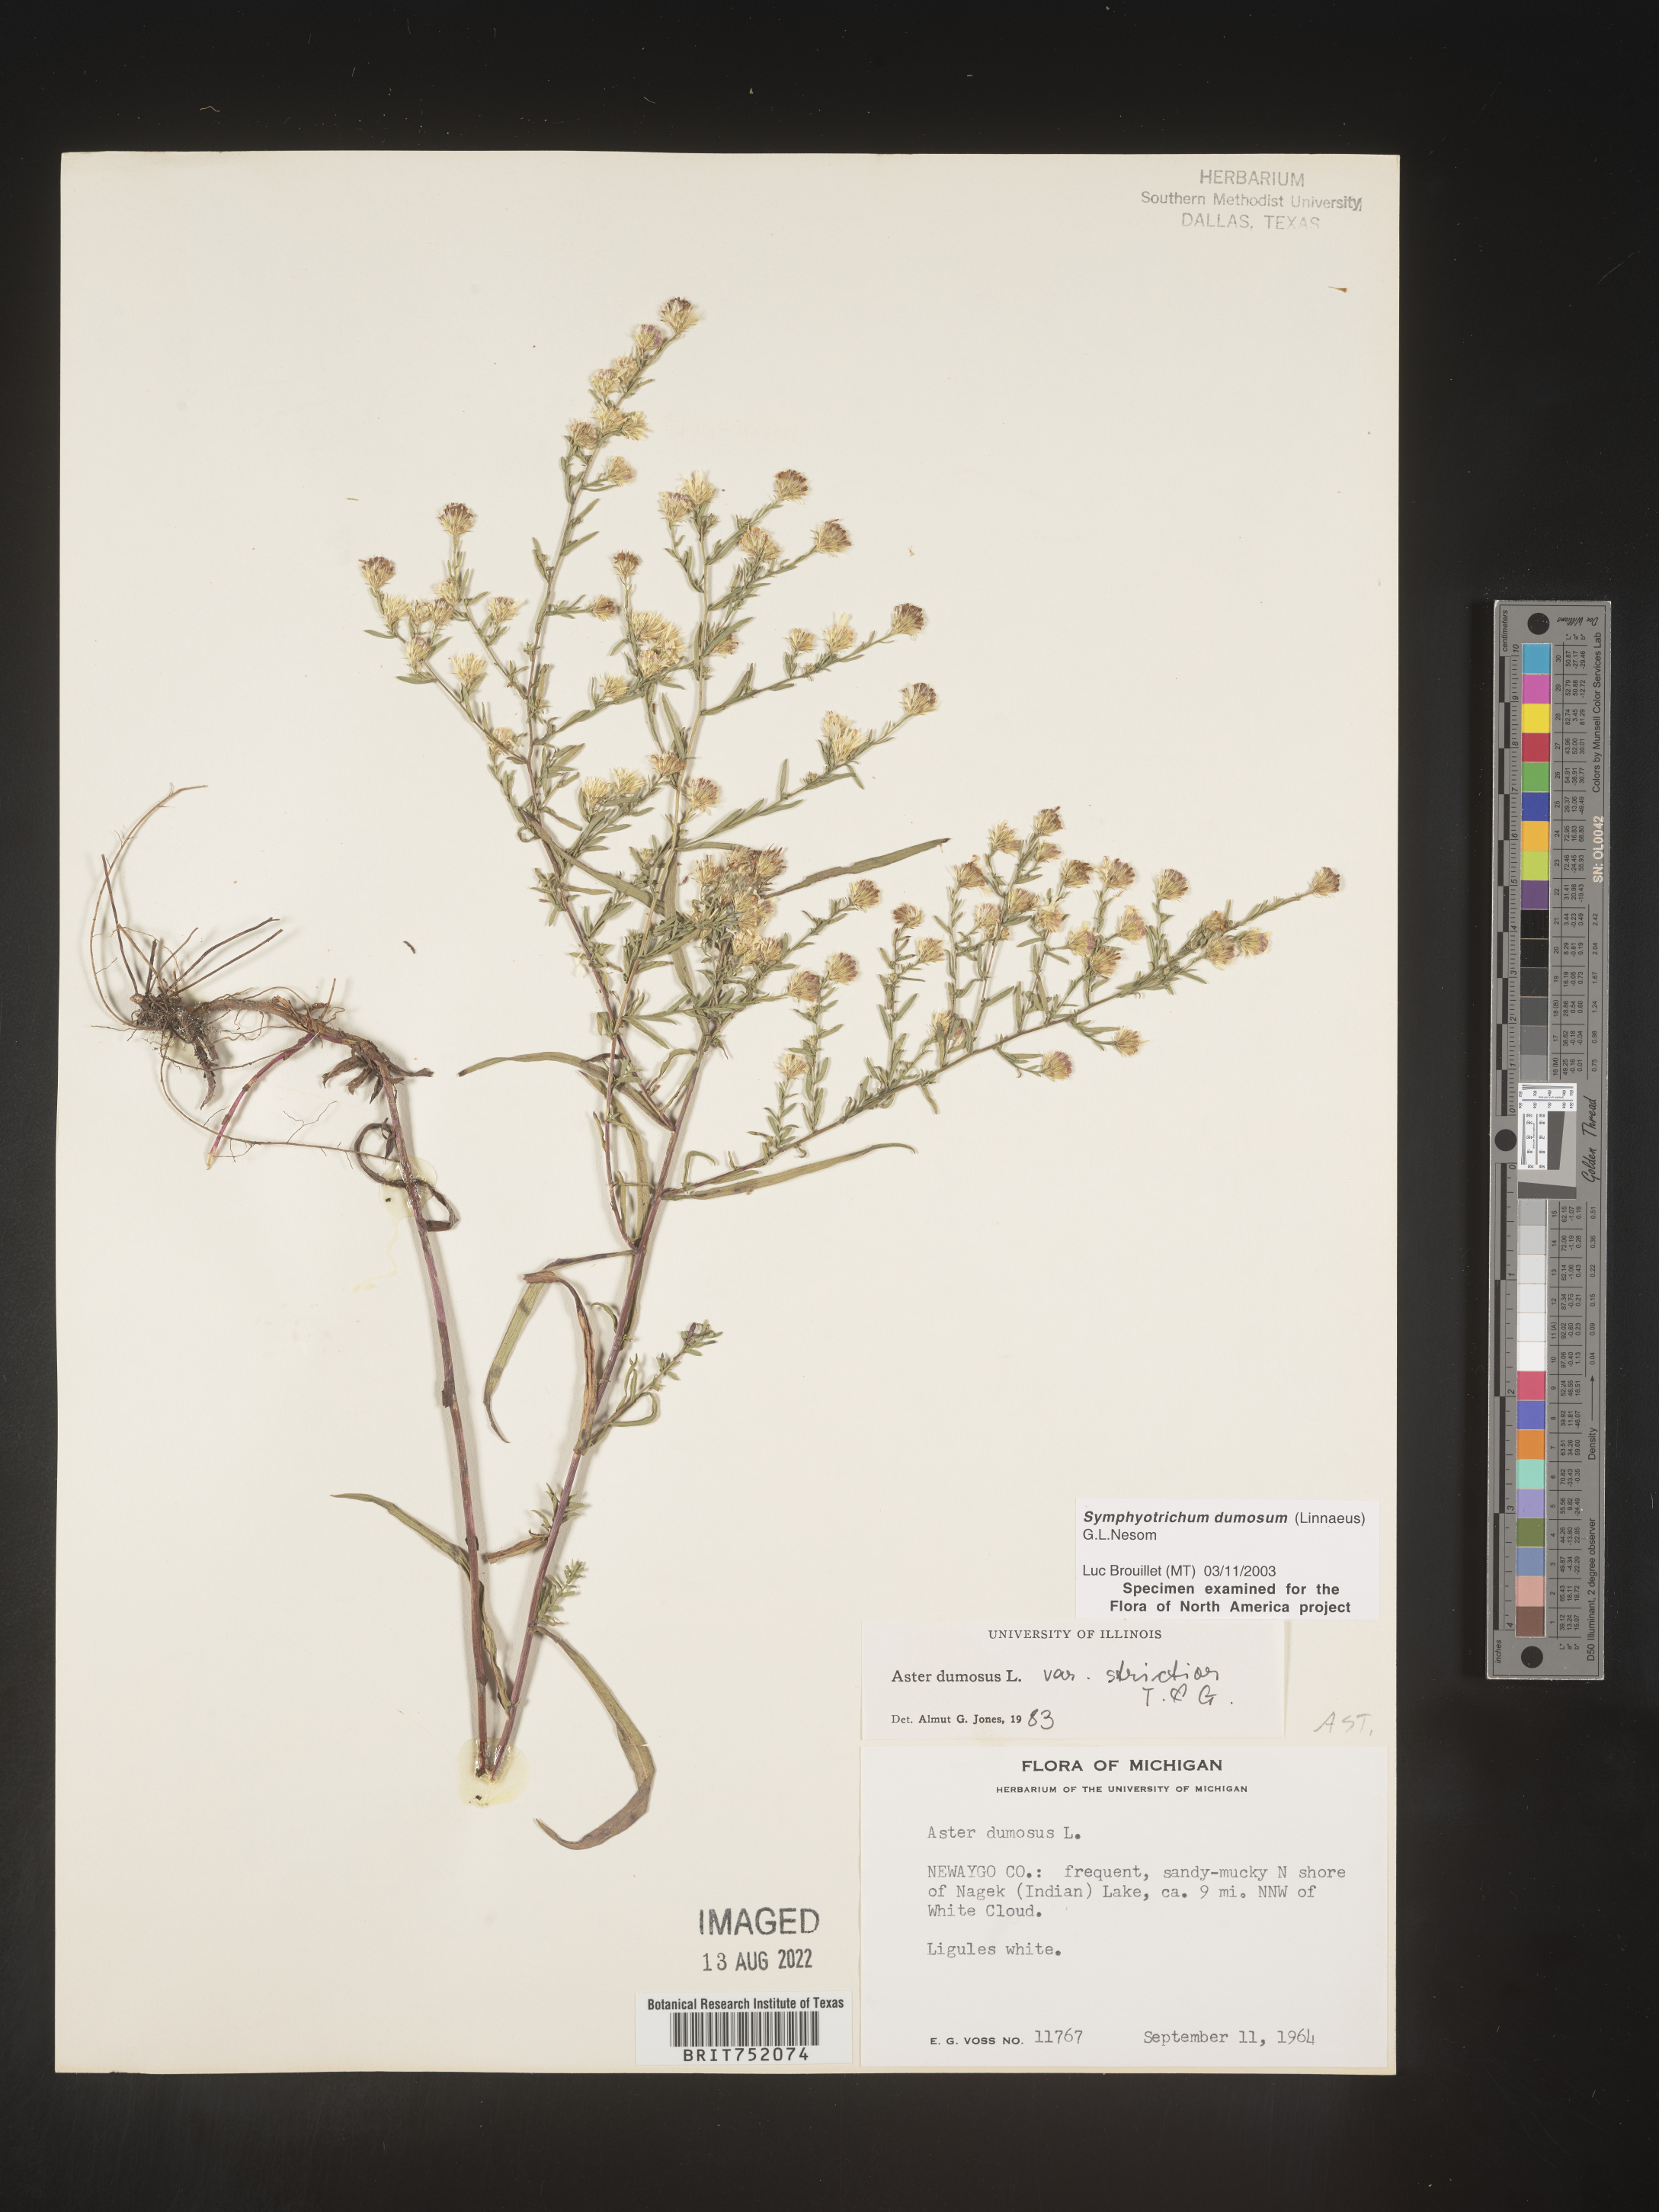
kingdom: Plantae
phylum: Tracheophyta
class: Magnoliopsida
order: Asterales
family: Asteraceae
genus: Symphyotrichum
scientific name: Symphyotrichum dumosum
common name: Bushy aster
